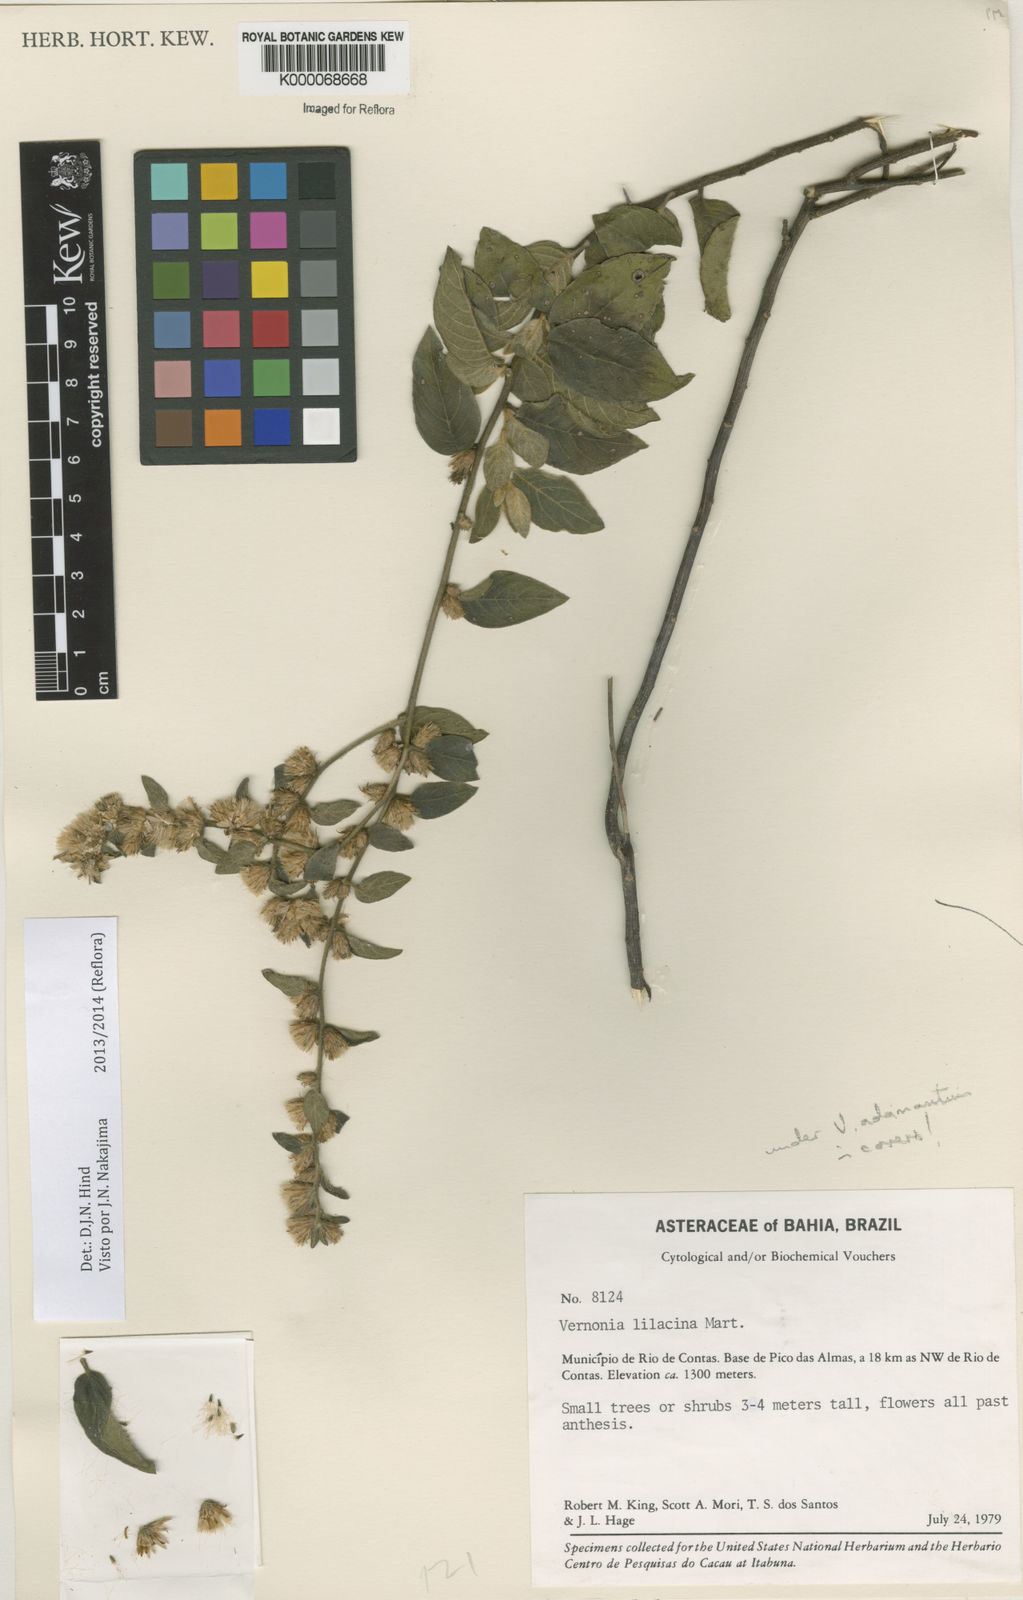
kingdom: Plantae
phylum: Tracheophyta
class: Magnoliopsida
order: Asterales
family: Asteraceae
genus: Lepidaploa
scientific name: Lepidaploa lilacina
